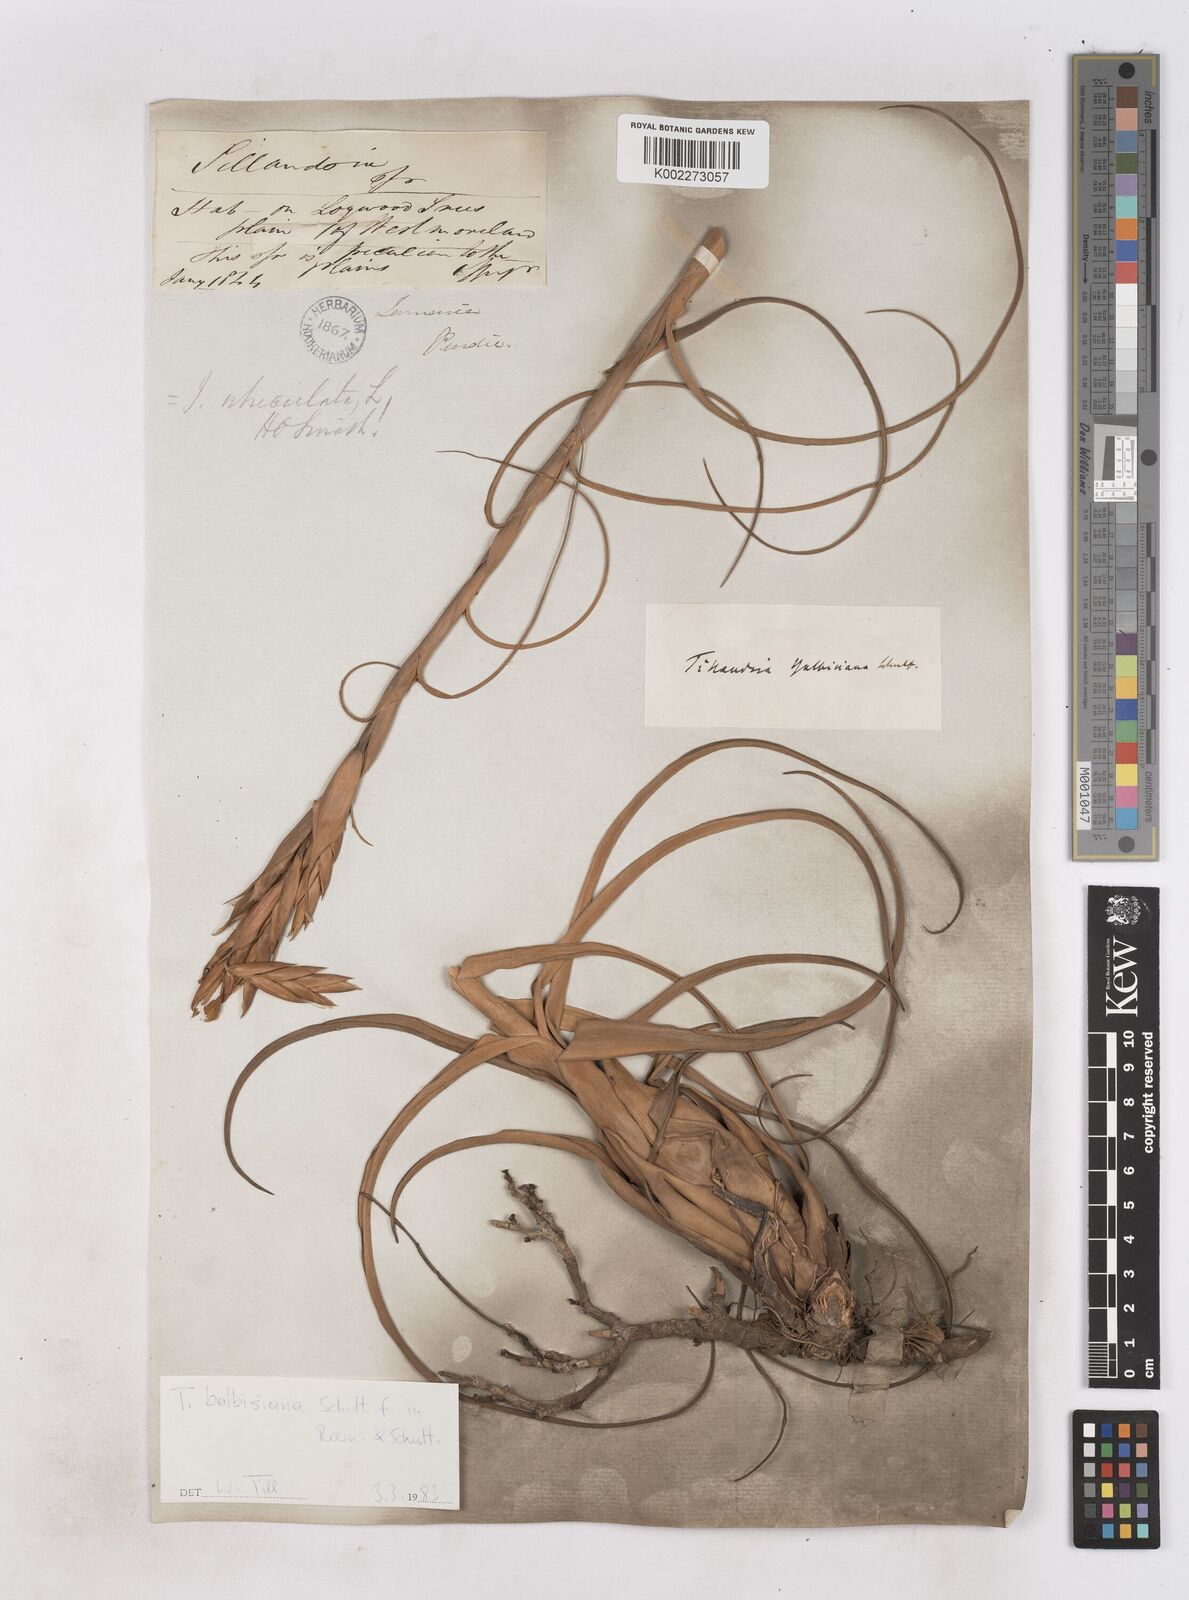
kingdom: Plantae
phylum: Tracheophyta
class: Liliopsida
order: Poales
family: Bromeliaceae
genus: Tillandsia
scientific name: Tillandsia balbisiana
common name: Northern needleleaf
